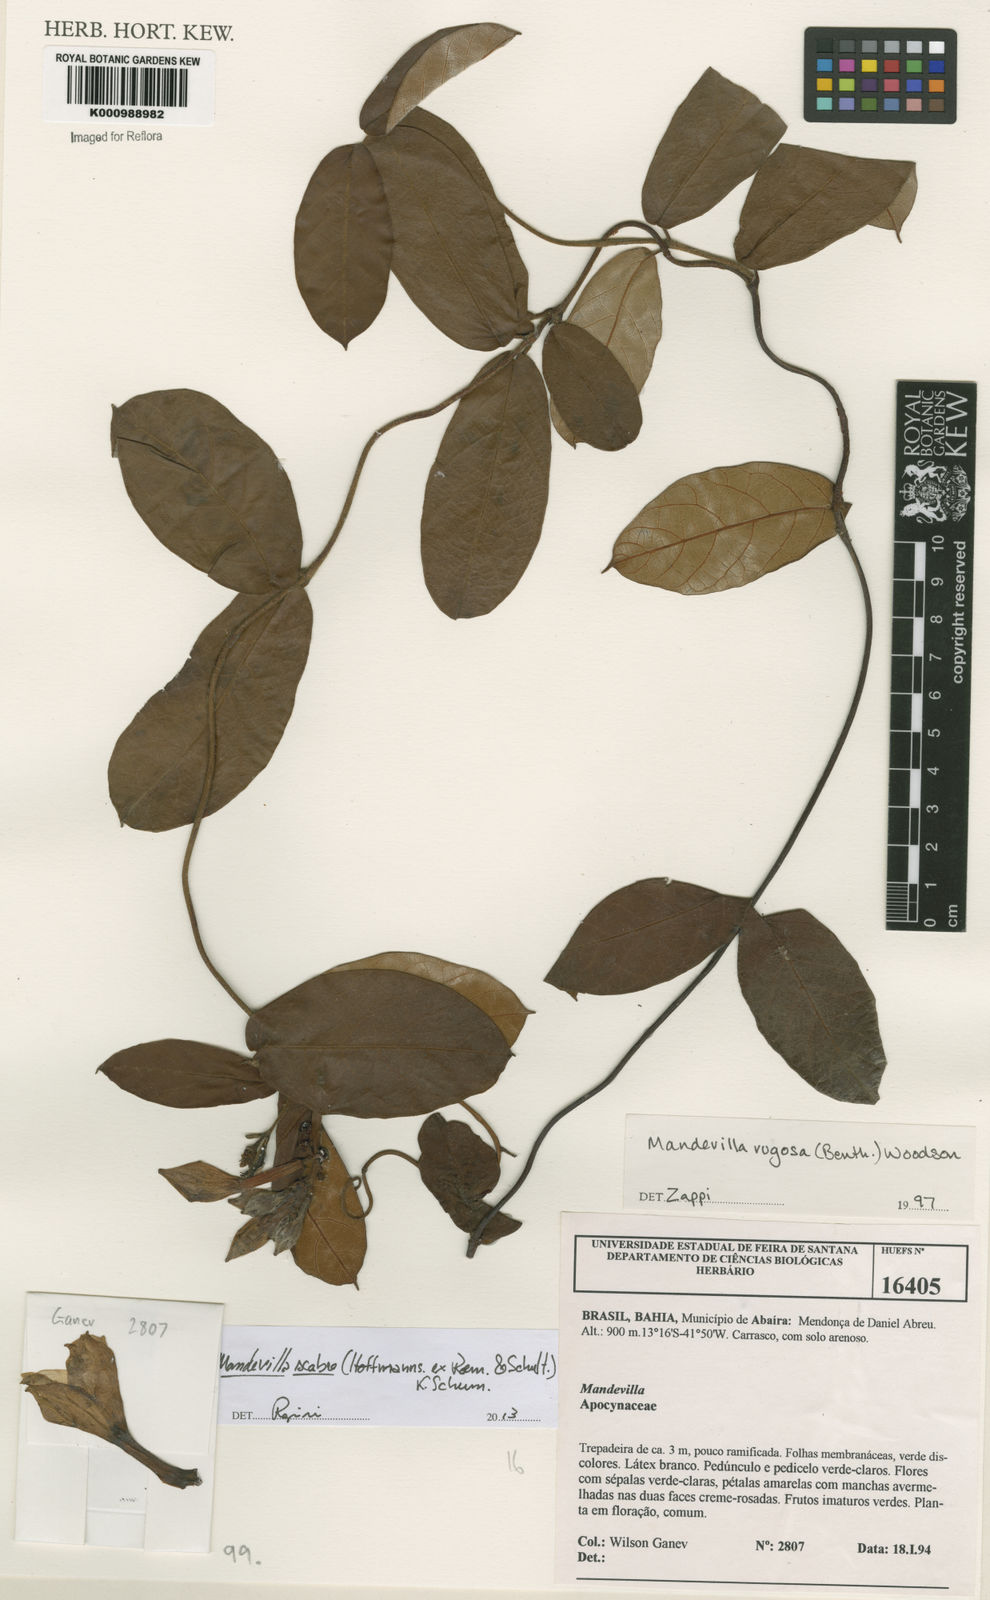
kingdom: Plantae
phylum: Tracheophyta
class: Magnoliopsida
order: Gentianales
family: Apocynaceae
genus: Mandevilla
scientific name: Mandevilla rugosa
